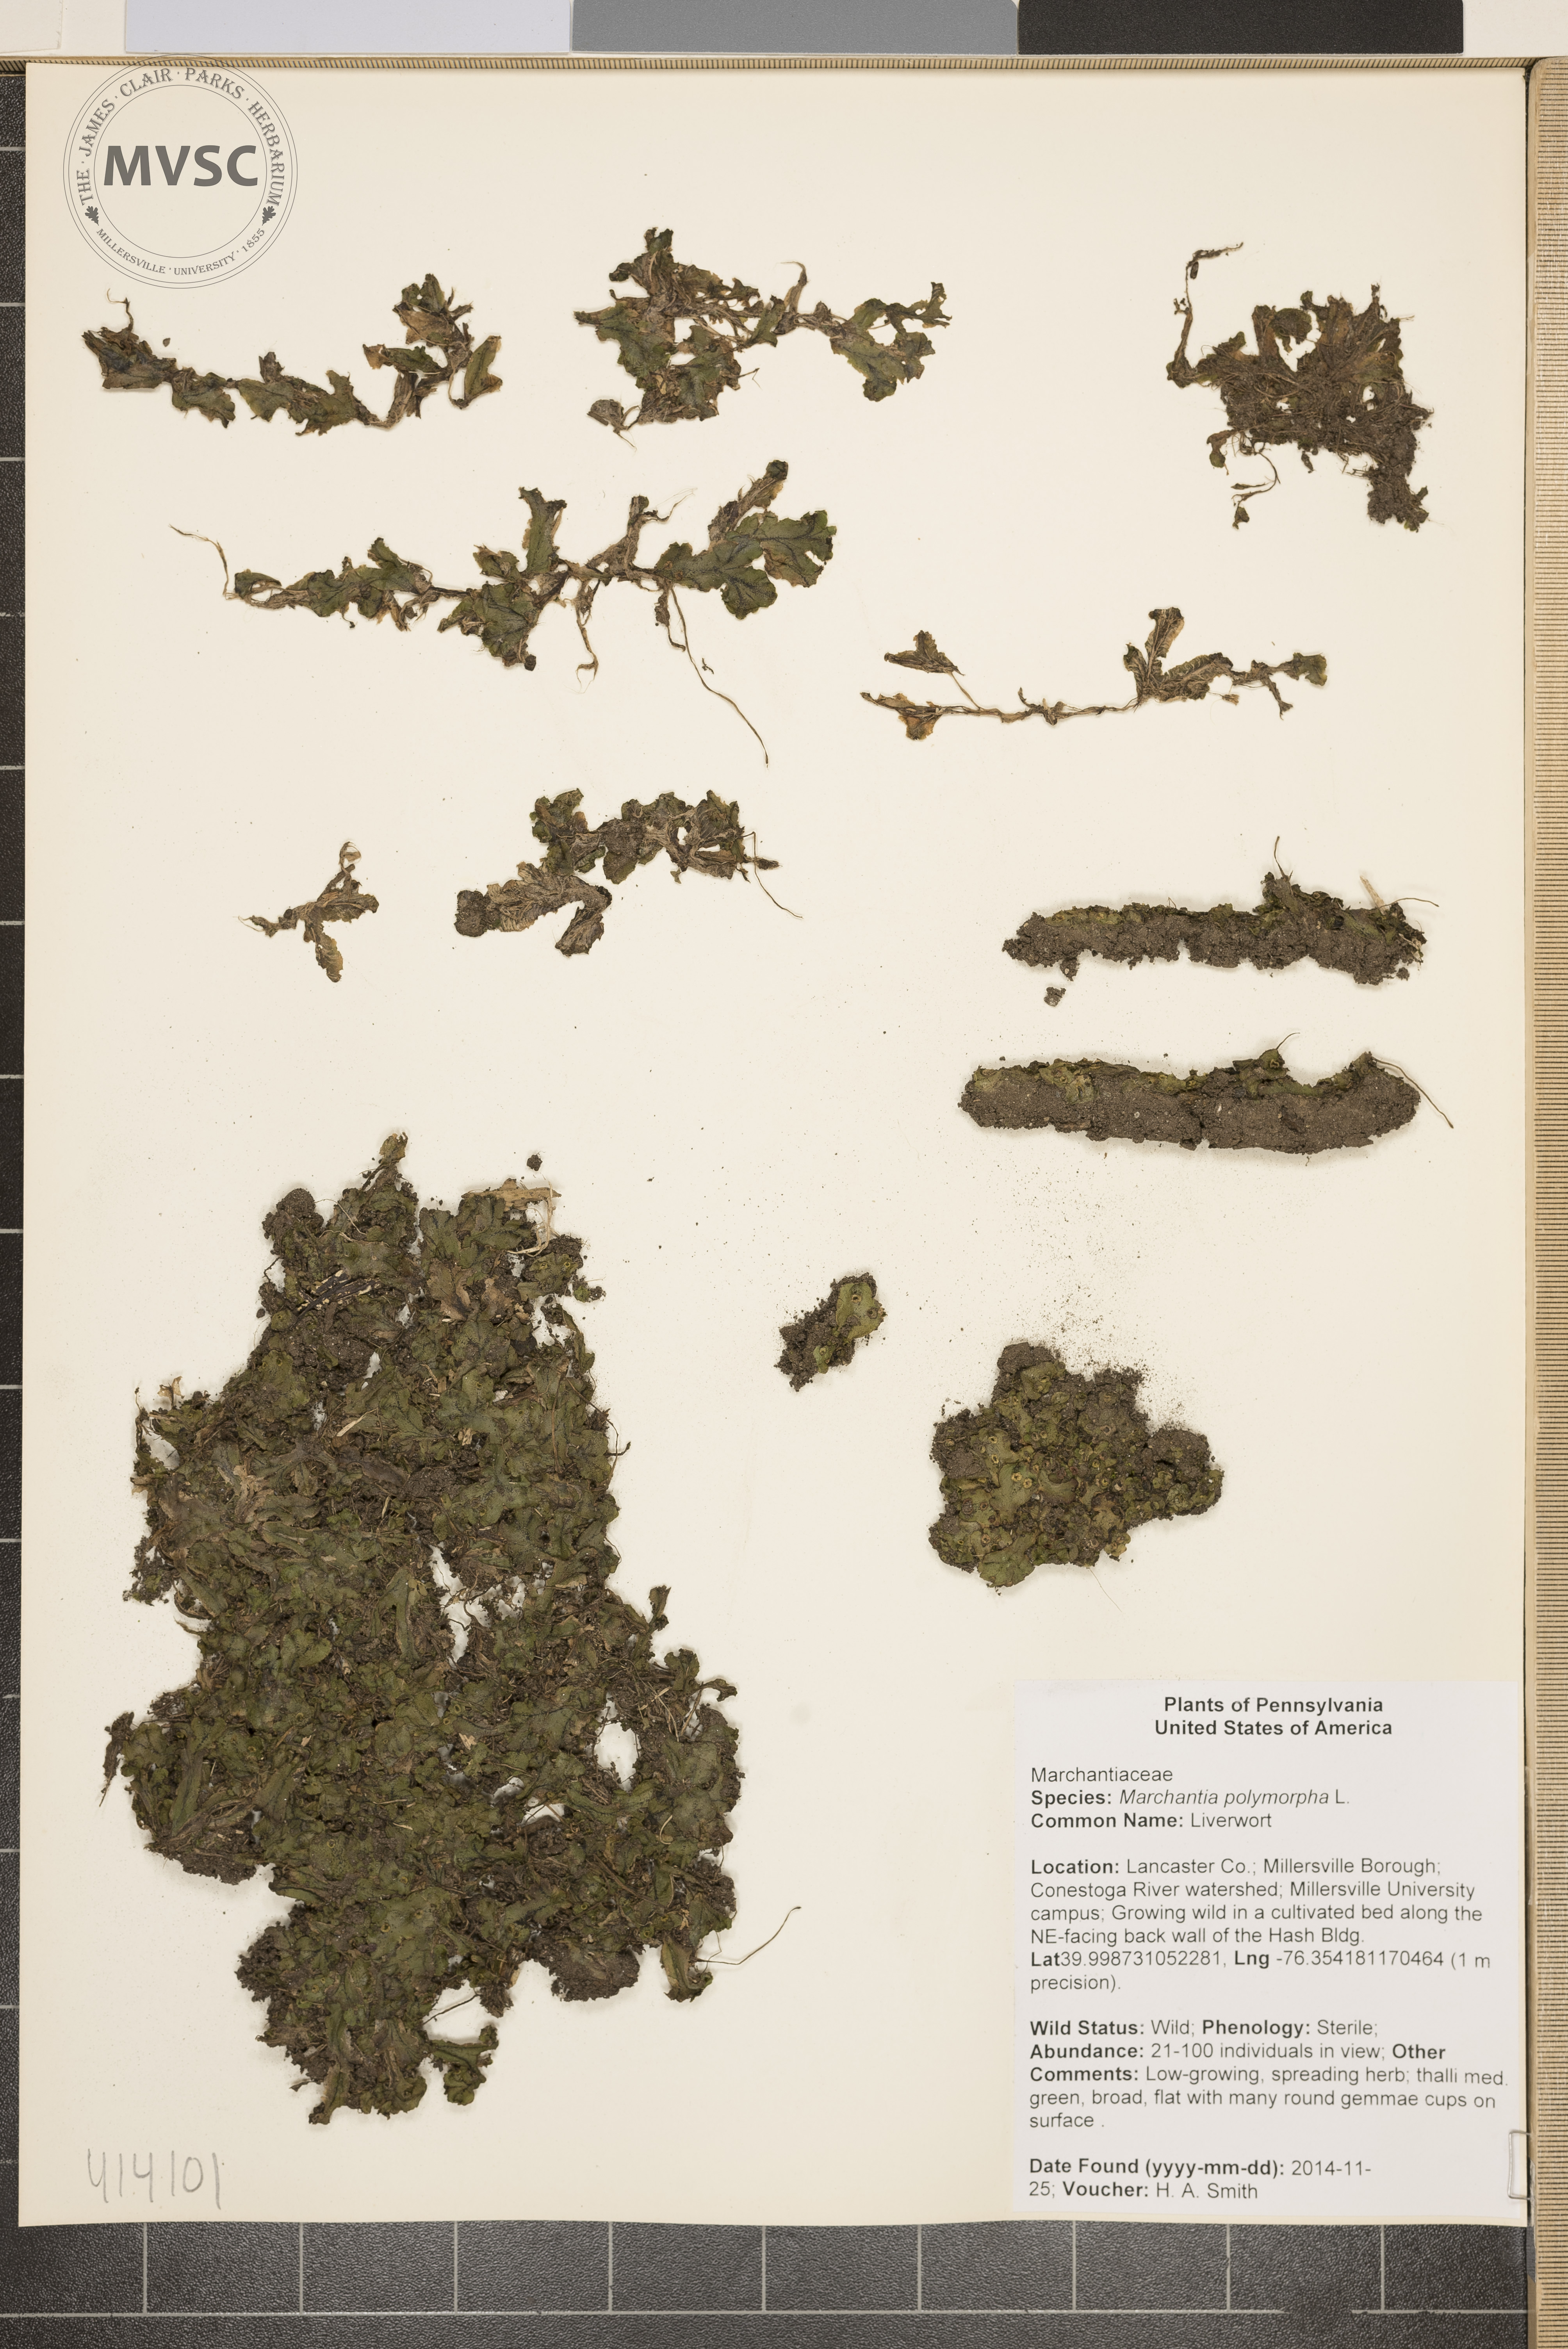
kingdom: Plantae
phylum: Marchantiophyta
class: Marchantiopsida
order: Marchantiales
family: Marchantiaceae
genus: Marchantia
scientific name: Marchantia polymorpha
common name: Liverwort
